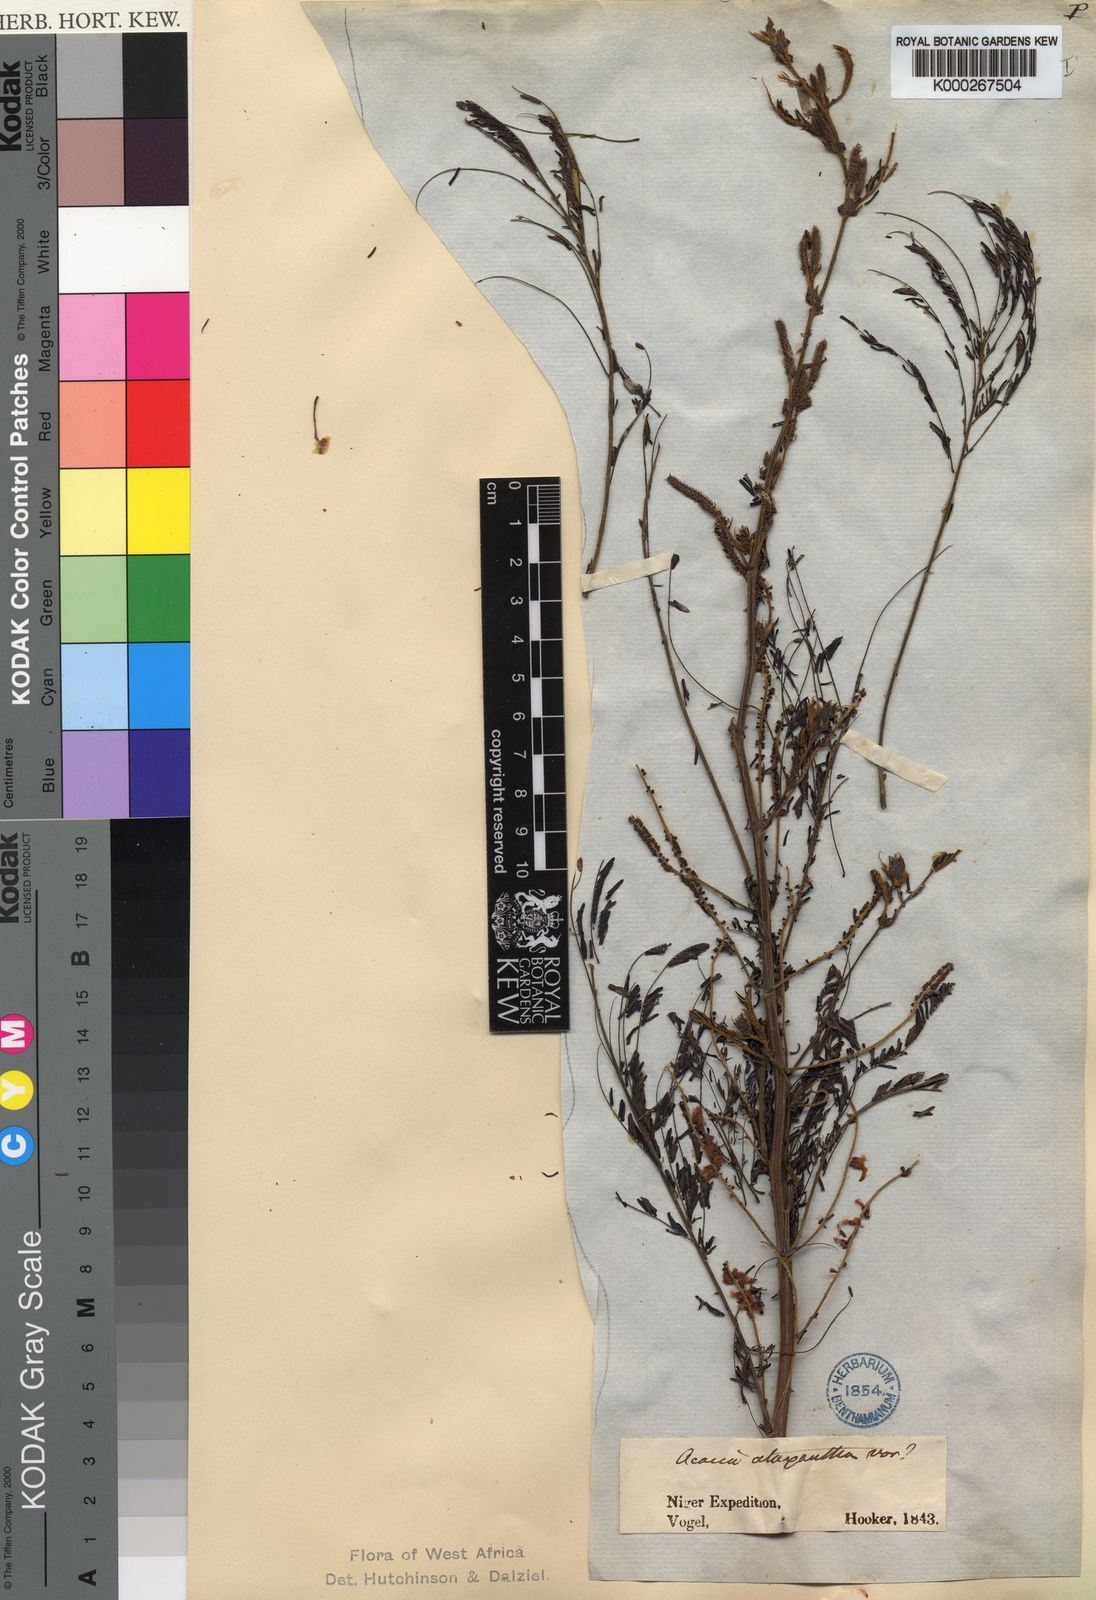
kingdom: Plantae
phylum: Tracheophyta
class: Magnoliopsida
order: Fabales
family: Fabaceae
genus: Senegalia
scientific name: Senegalia ataxacantha
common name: Flame acacia
